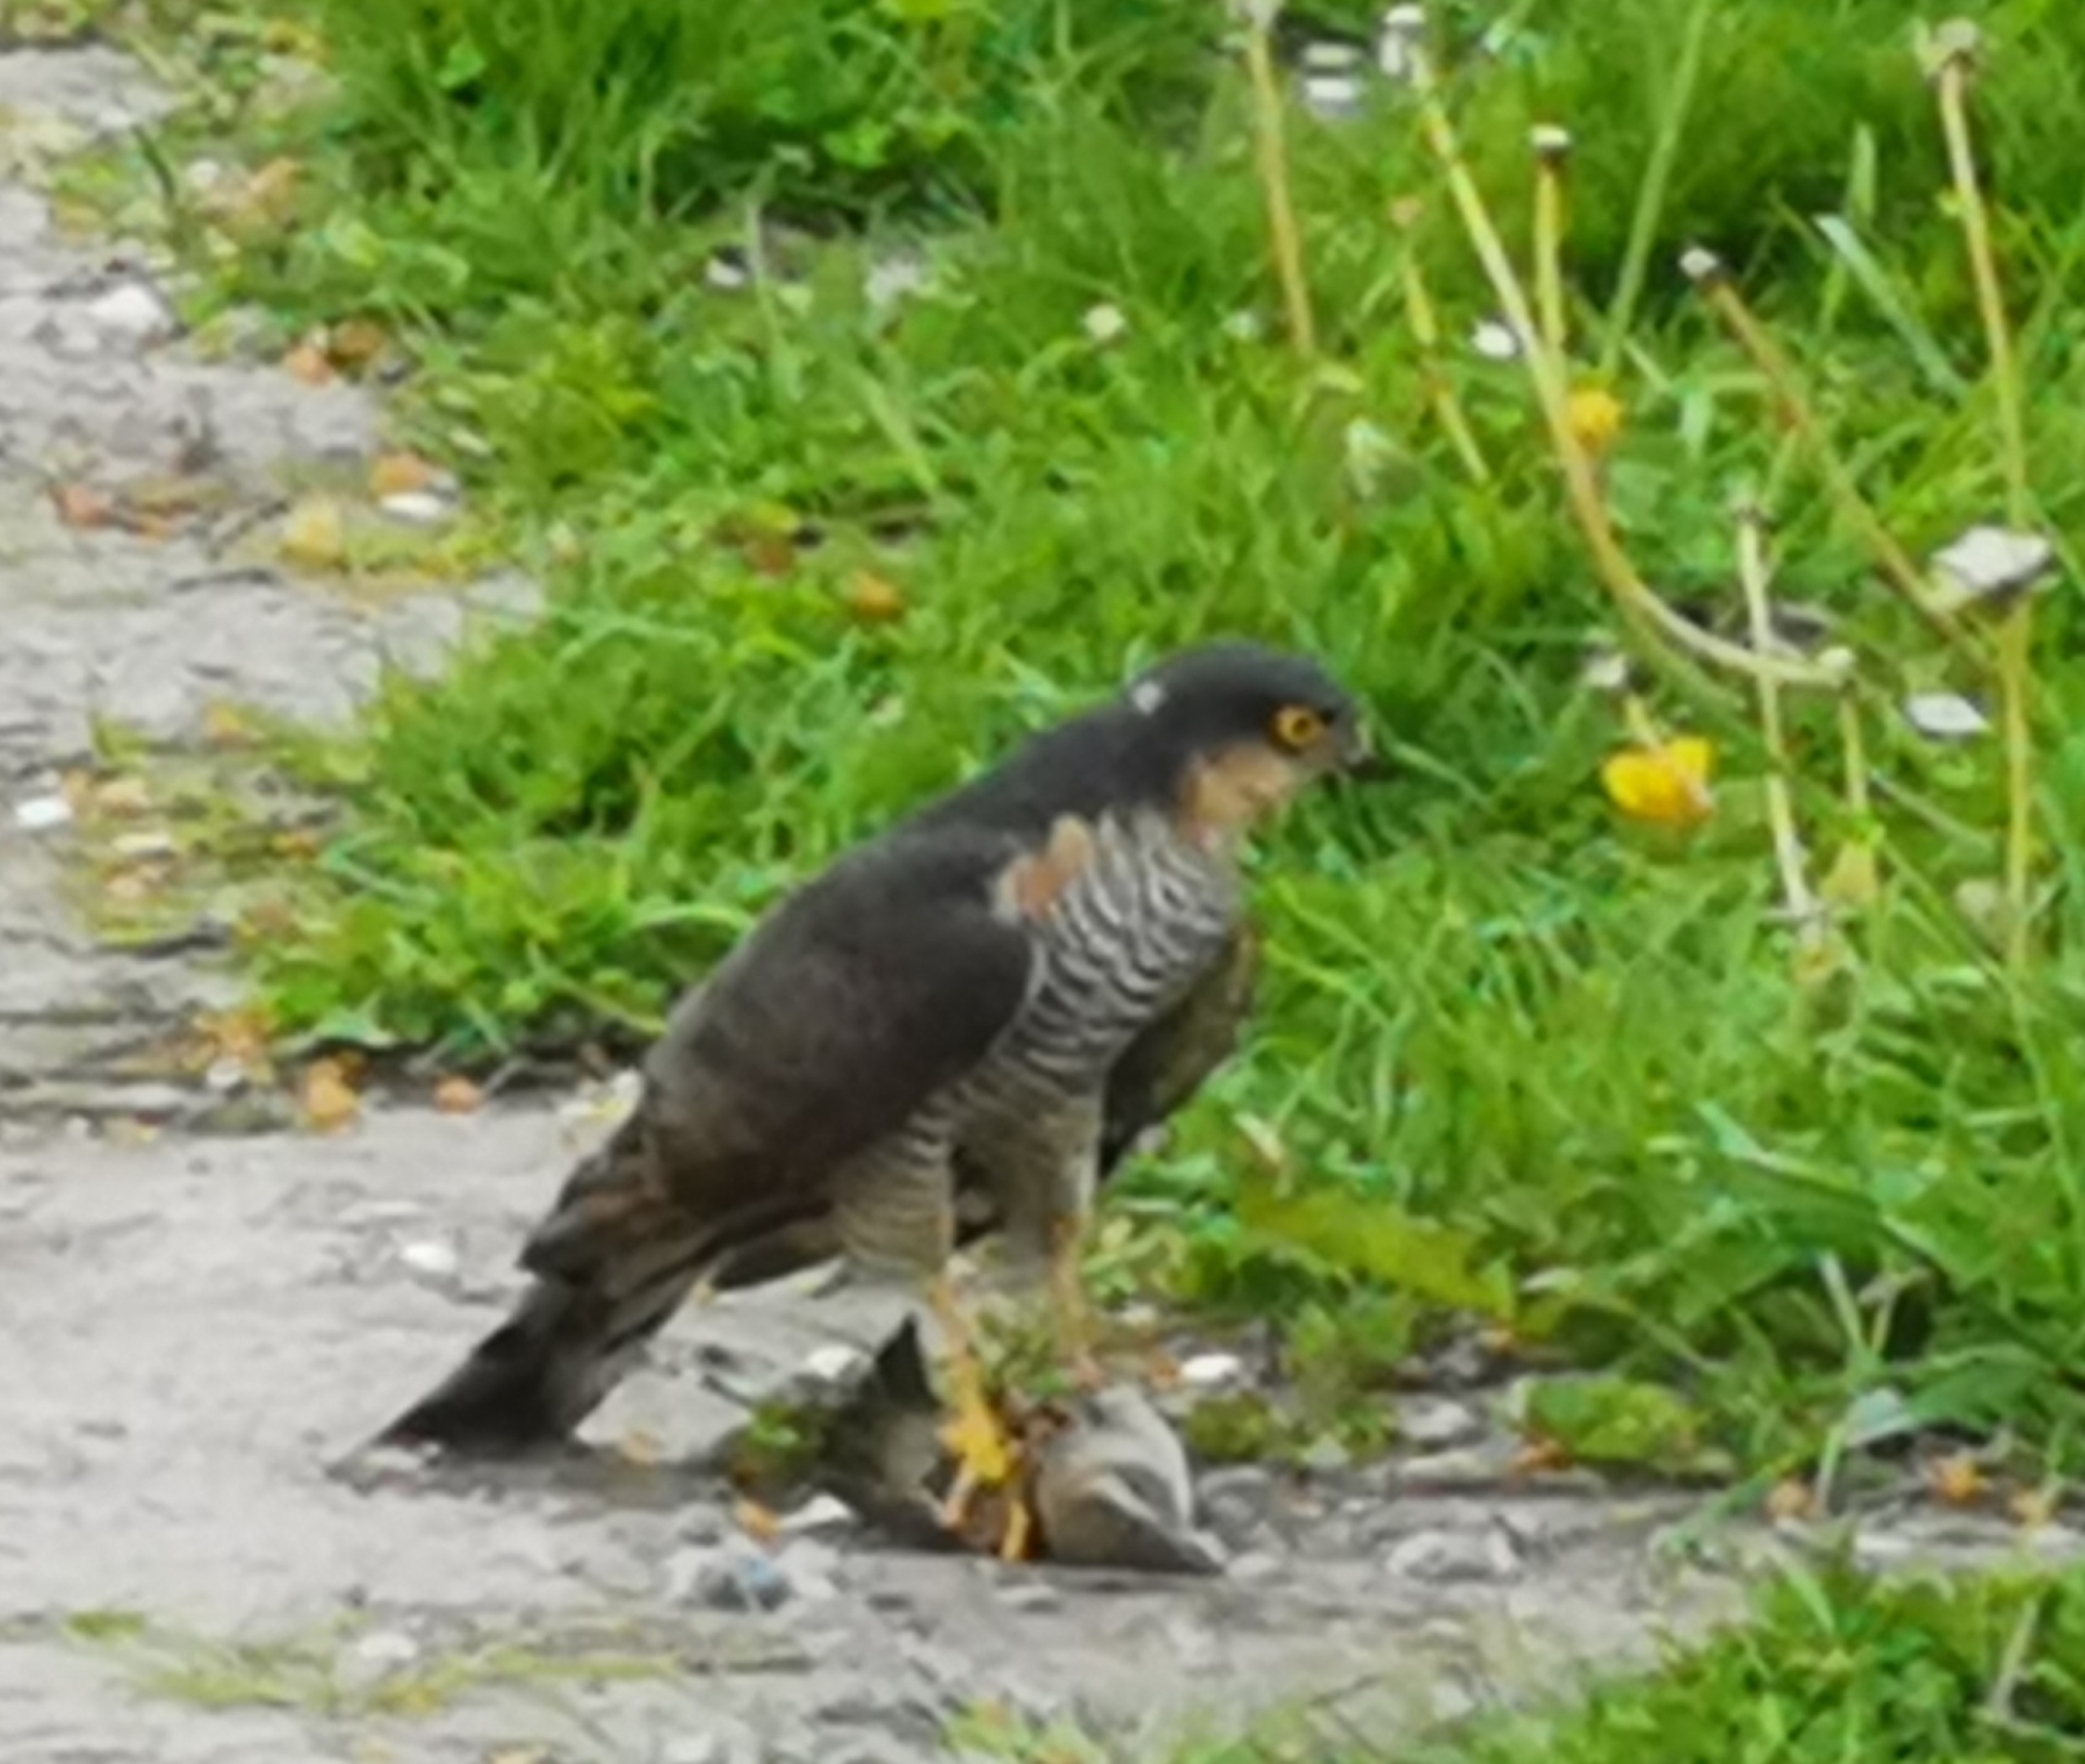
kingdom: Animalia
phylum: Chordata
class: Aves
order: Accipitriformes
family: Accipitridae
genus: Accipiter
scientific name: Accipiter nisus
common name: Spurvehøg
